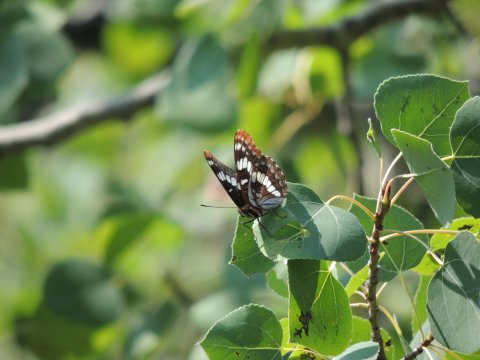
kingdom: Animalia
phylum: Arthropoda
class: Insecta
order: Lepidoptera
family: Nymphalidae
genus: Limenitis
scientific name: Limenitis lorquini
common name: Lorquin's Admiral
